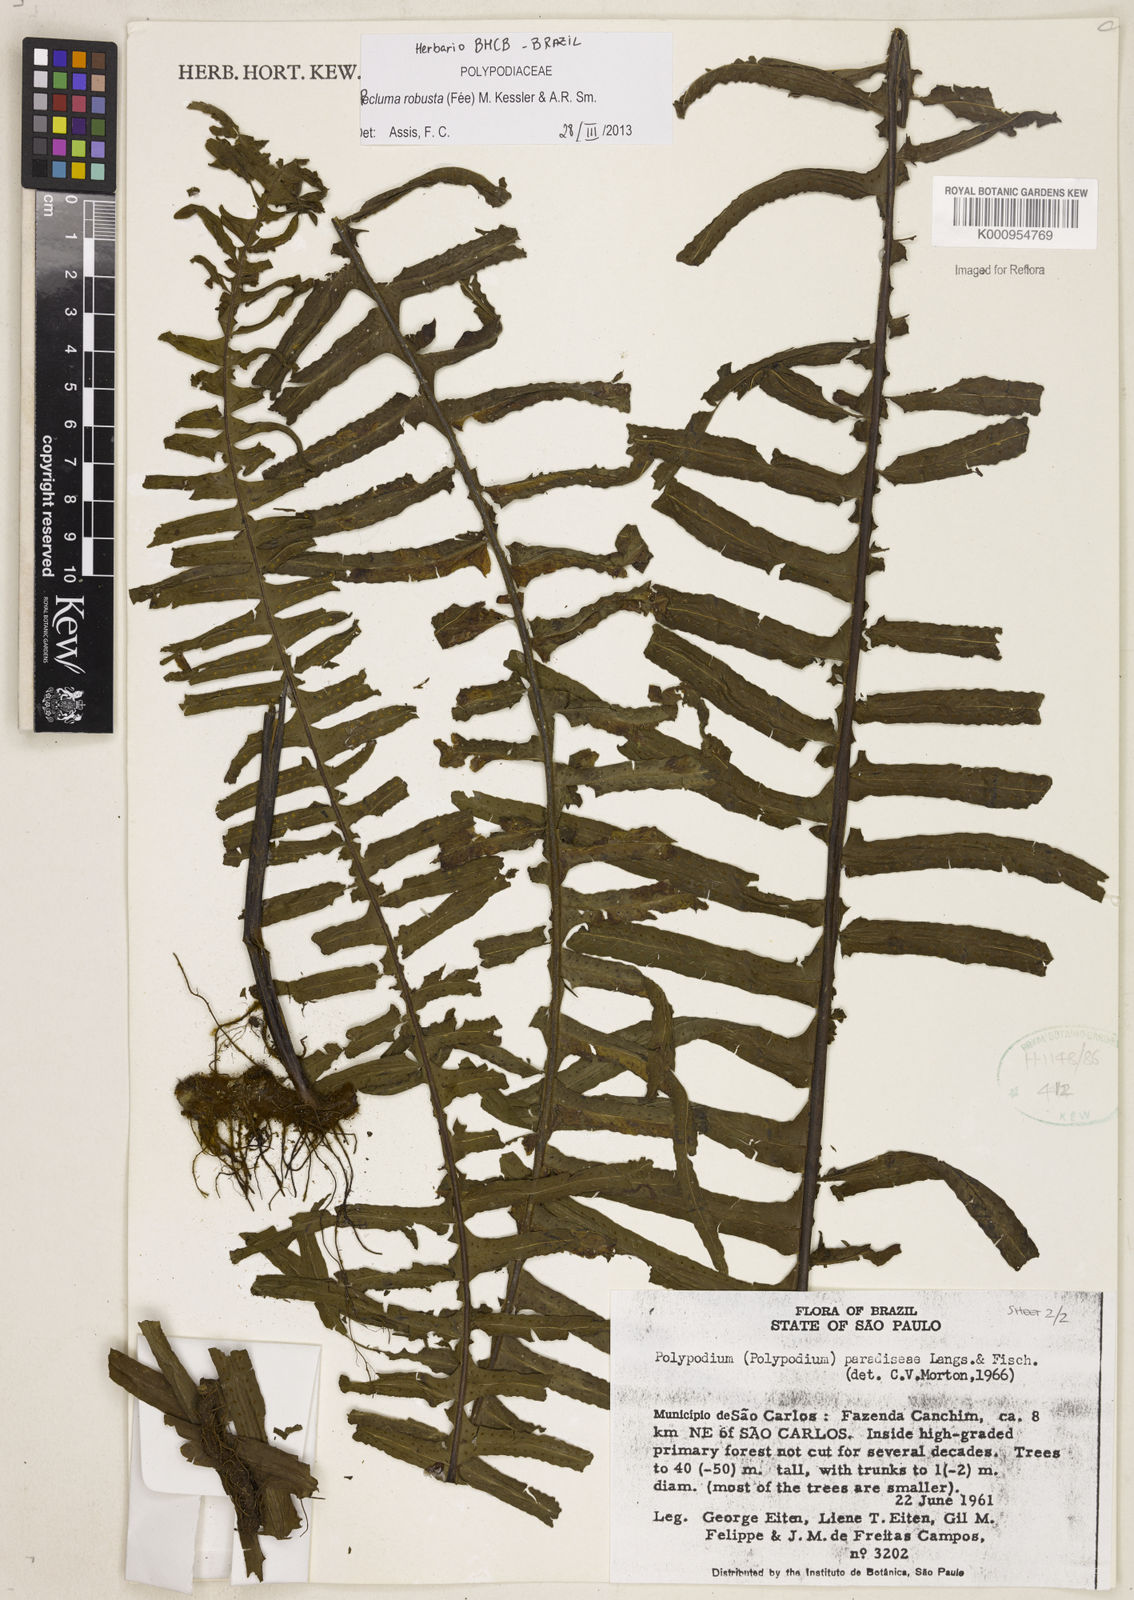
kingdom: Plantae
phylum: Tracheophyta
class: Magnoliopsida
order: Rosales
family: Moraceae
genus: Naucleopsis
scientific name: Naucleopsis ulei
